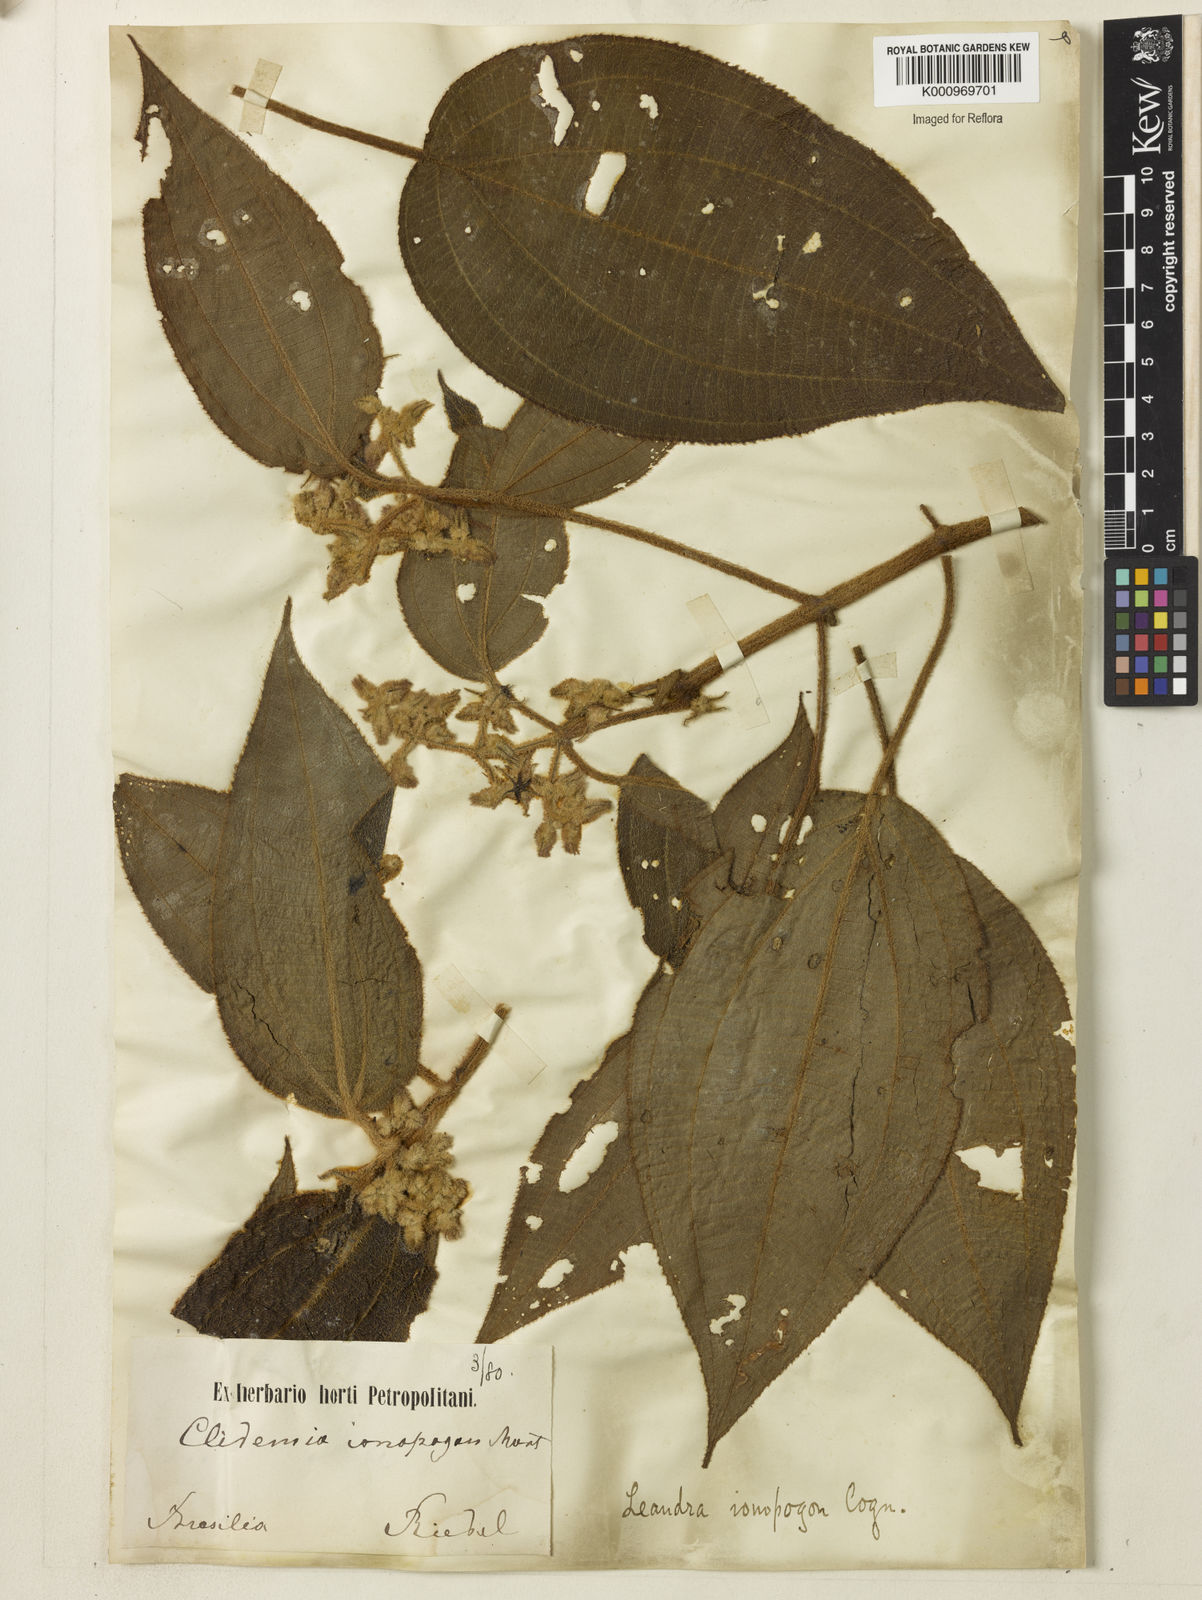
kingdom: Plantae
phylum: Tracheophyta
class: Magnoliopsida
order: Myrtales
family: Melastomataceae
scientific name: Melastomataceae
